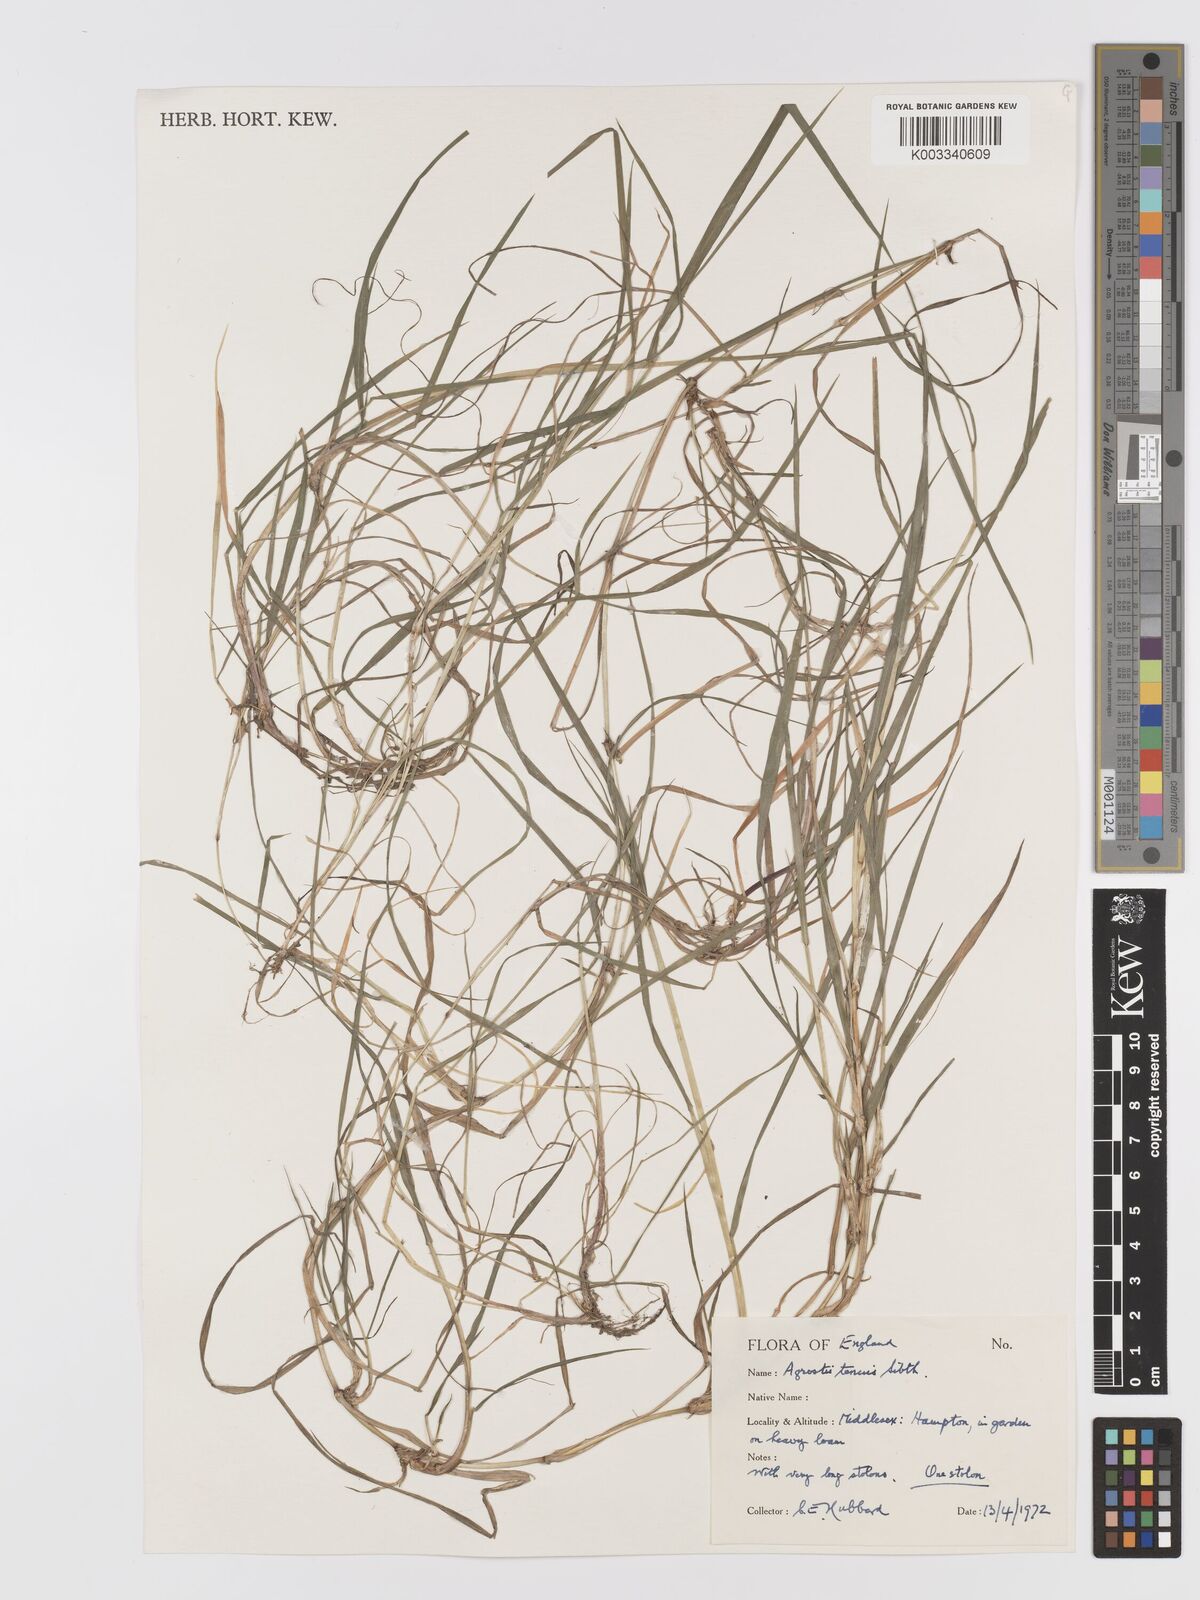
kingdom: Plantae
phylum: Tracheophyta
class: Liliopsida
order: Poales
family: Poaceae
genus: Agrostis
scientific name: Agrostis capillaris
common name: Colonial bentgrass
